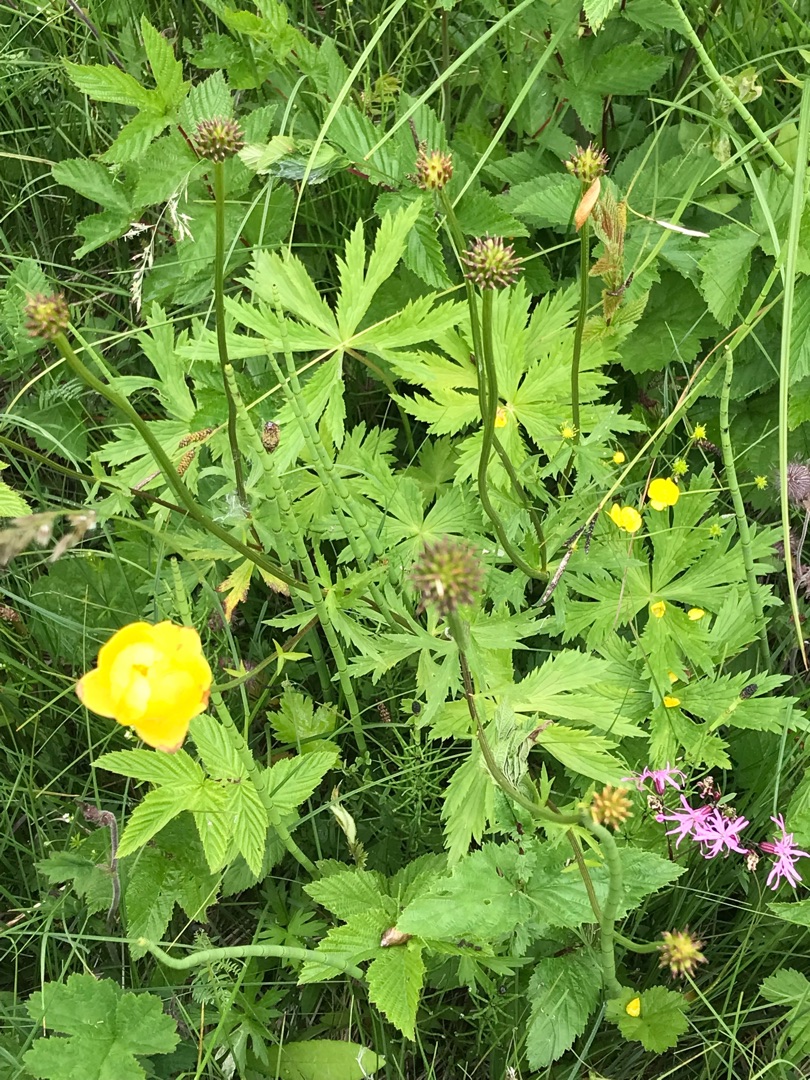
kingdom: Plantae
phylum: Tracheophyta
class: Magnoliopsida
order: Ranunculales
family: Ranunculaceae
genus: Trollius
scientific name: Trollius europaeus
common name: Engblomme
